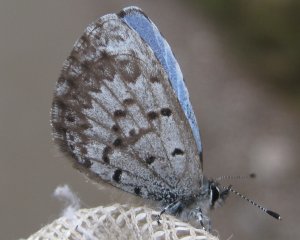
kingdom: Animalia
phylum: Arthropoda
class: Insecta
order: Lepidoptera
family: Lycaenidae
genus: Celastrina
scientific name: Celastrina lucia
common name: Northern Spring Azure
